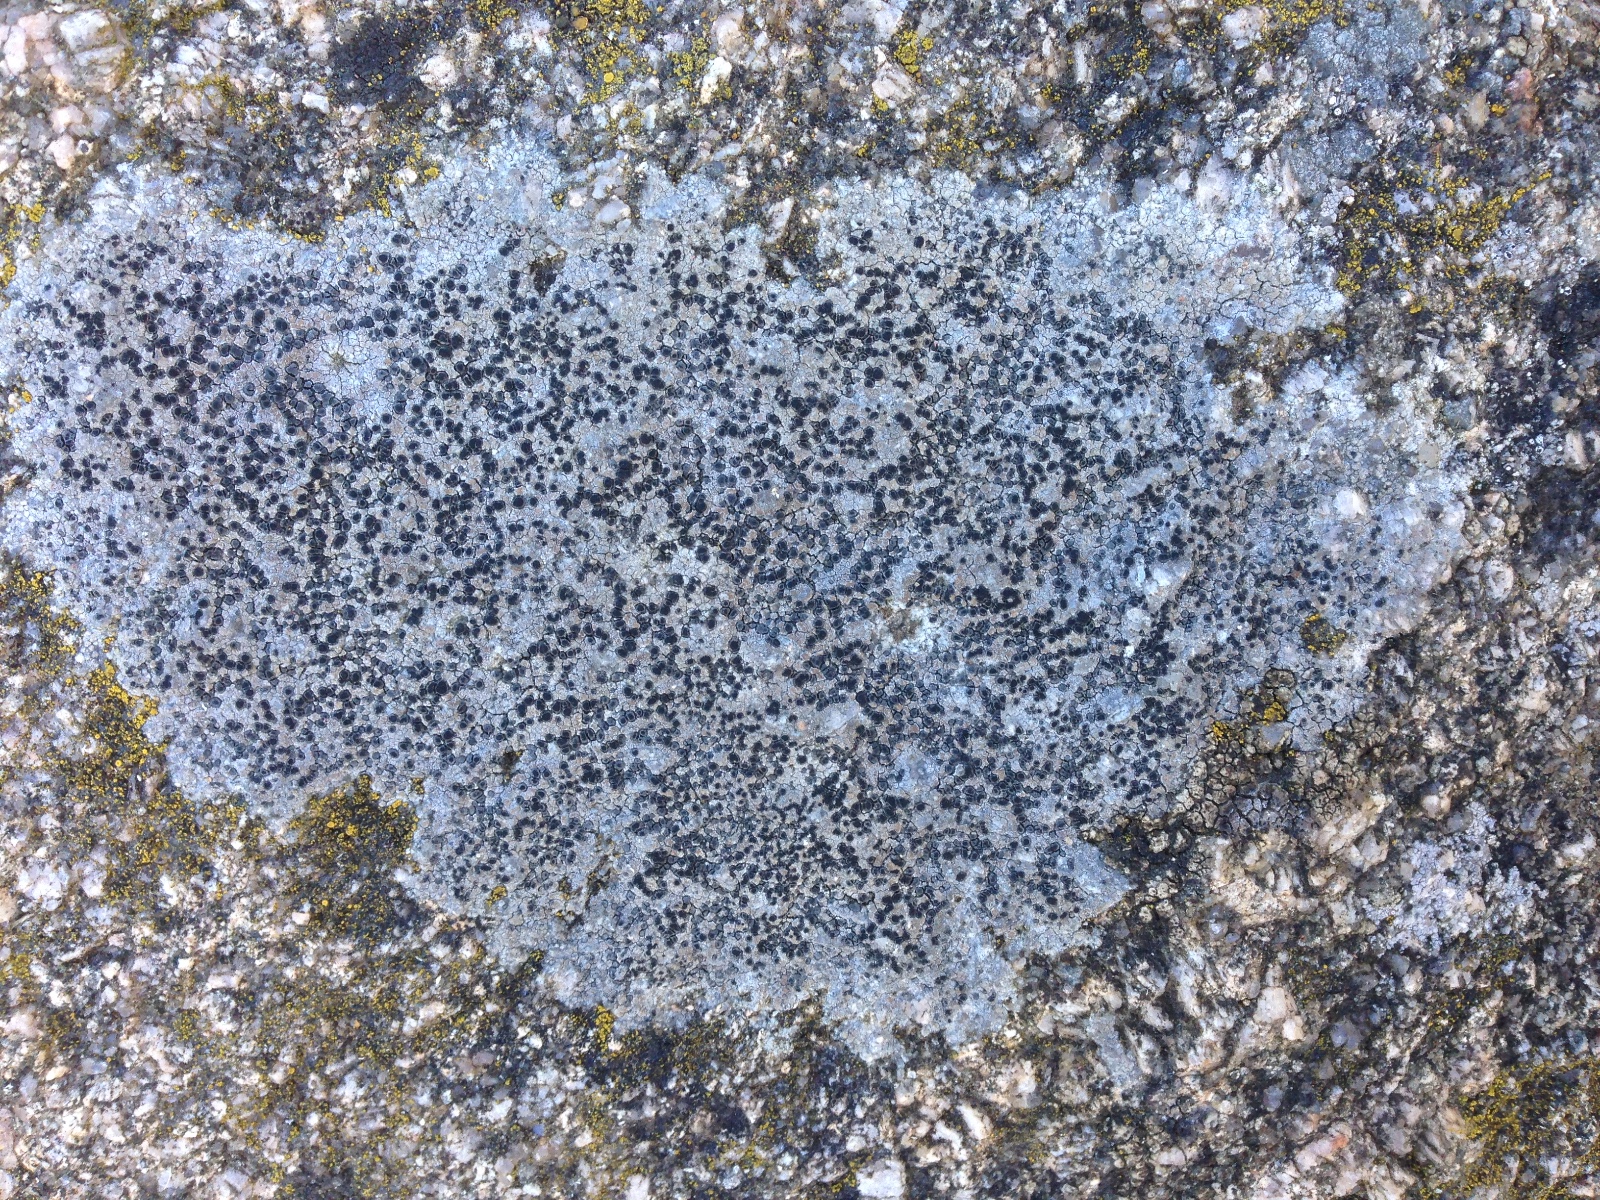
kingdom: Fungi
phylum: Ascomycota
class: Lecanoromycetes
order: Lecideales
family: Lecideaceae
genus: Lecidea
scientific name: Lecidea fuscoatra
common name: rudret skivelav
